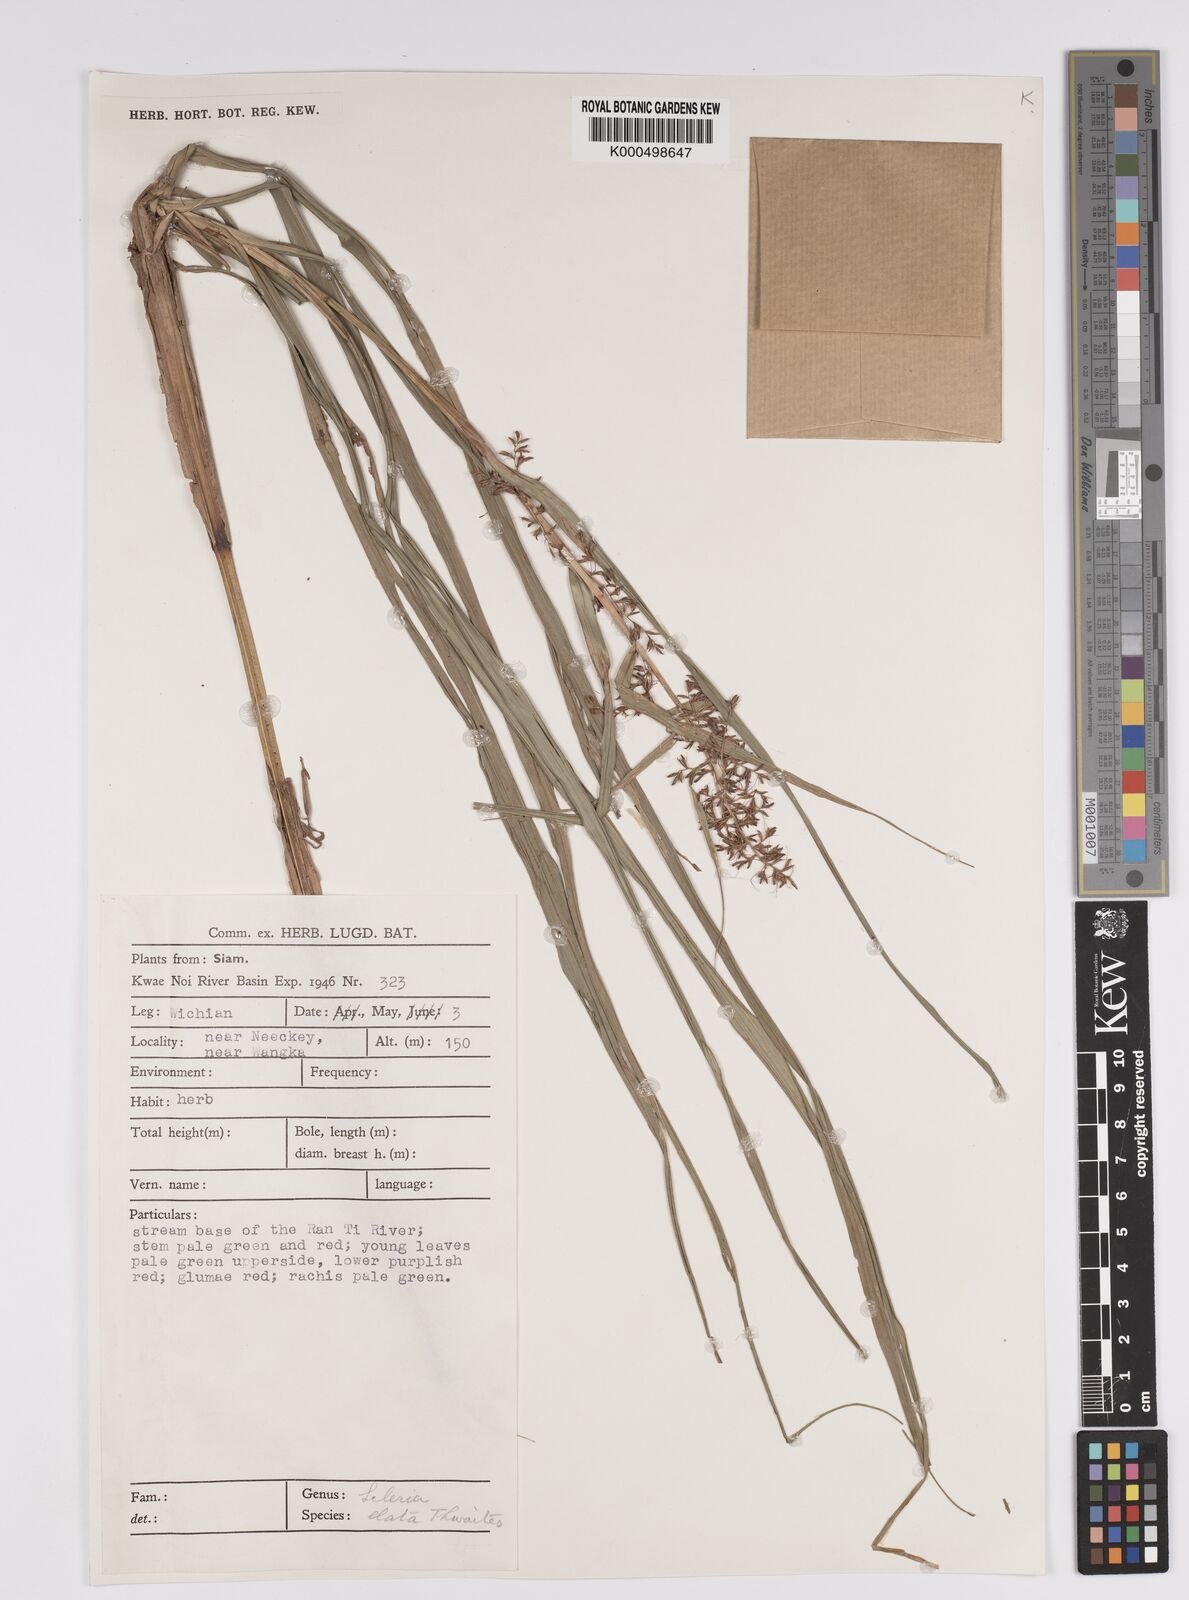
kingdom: Plantae
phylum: Tracheophyta
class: Liliopsida
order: Poales
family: Cyperaceae
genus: Scleria
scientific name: Scleria terrestris
